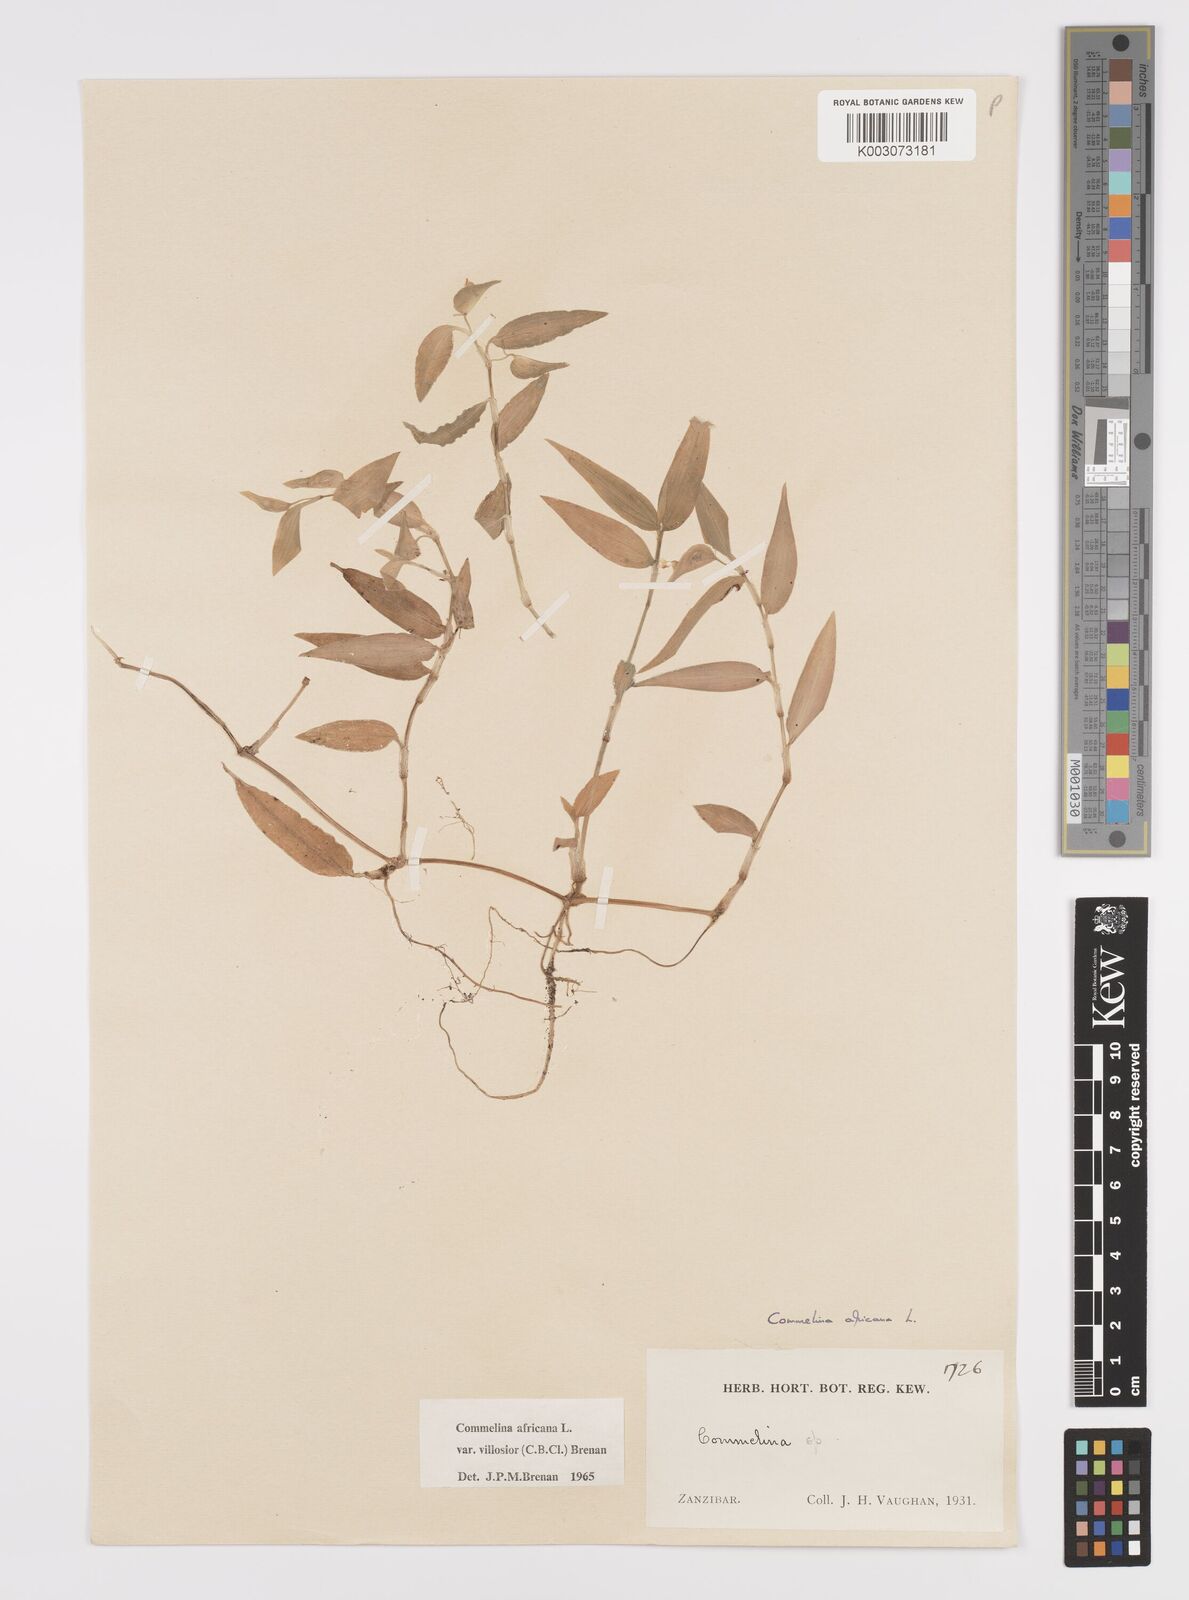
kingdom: Plantae
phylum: Tracheophyta
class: Liliopsida
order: Commelinales
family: Commelinaceae
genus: Commelina
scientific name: Commelina africana
